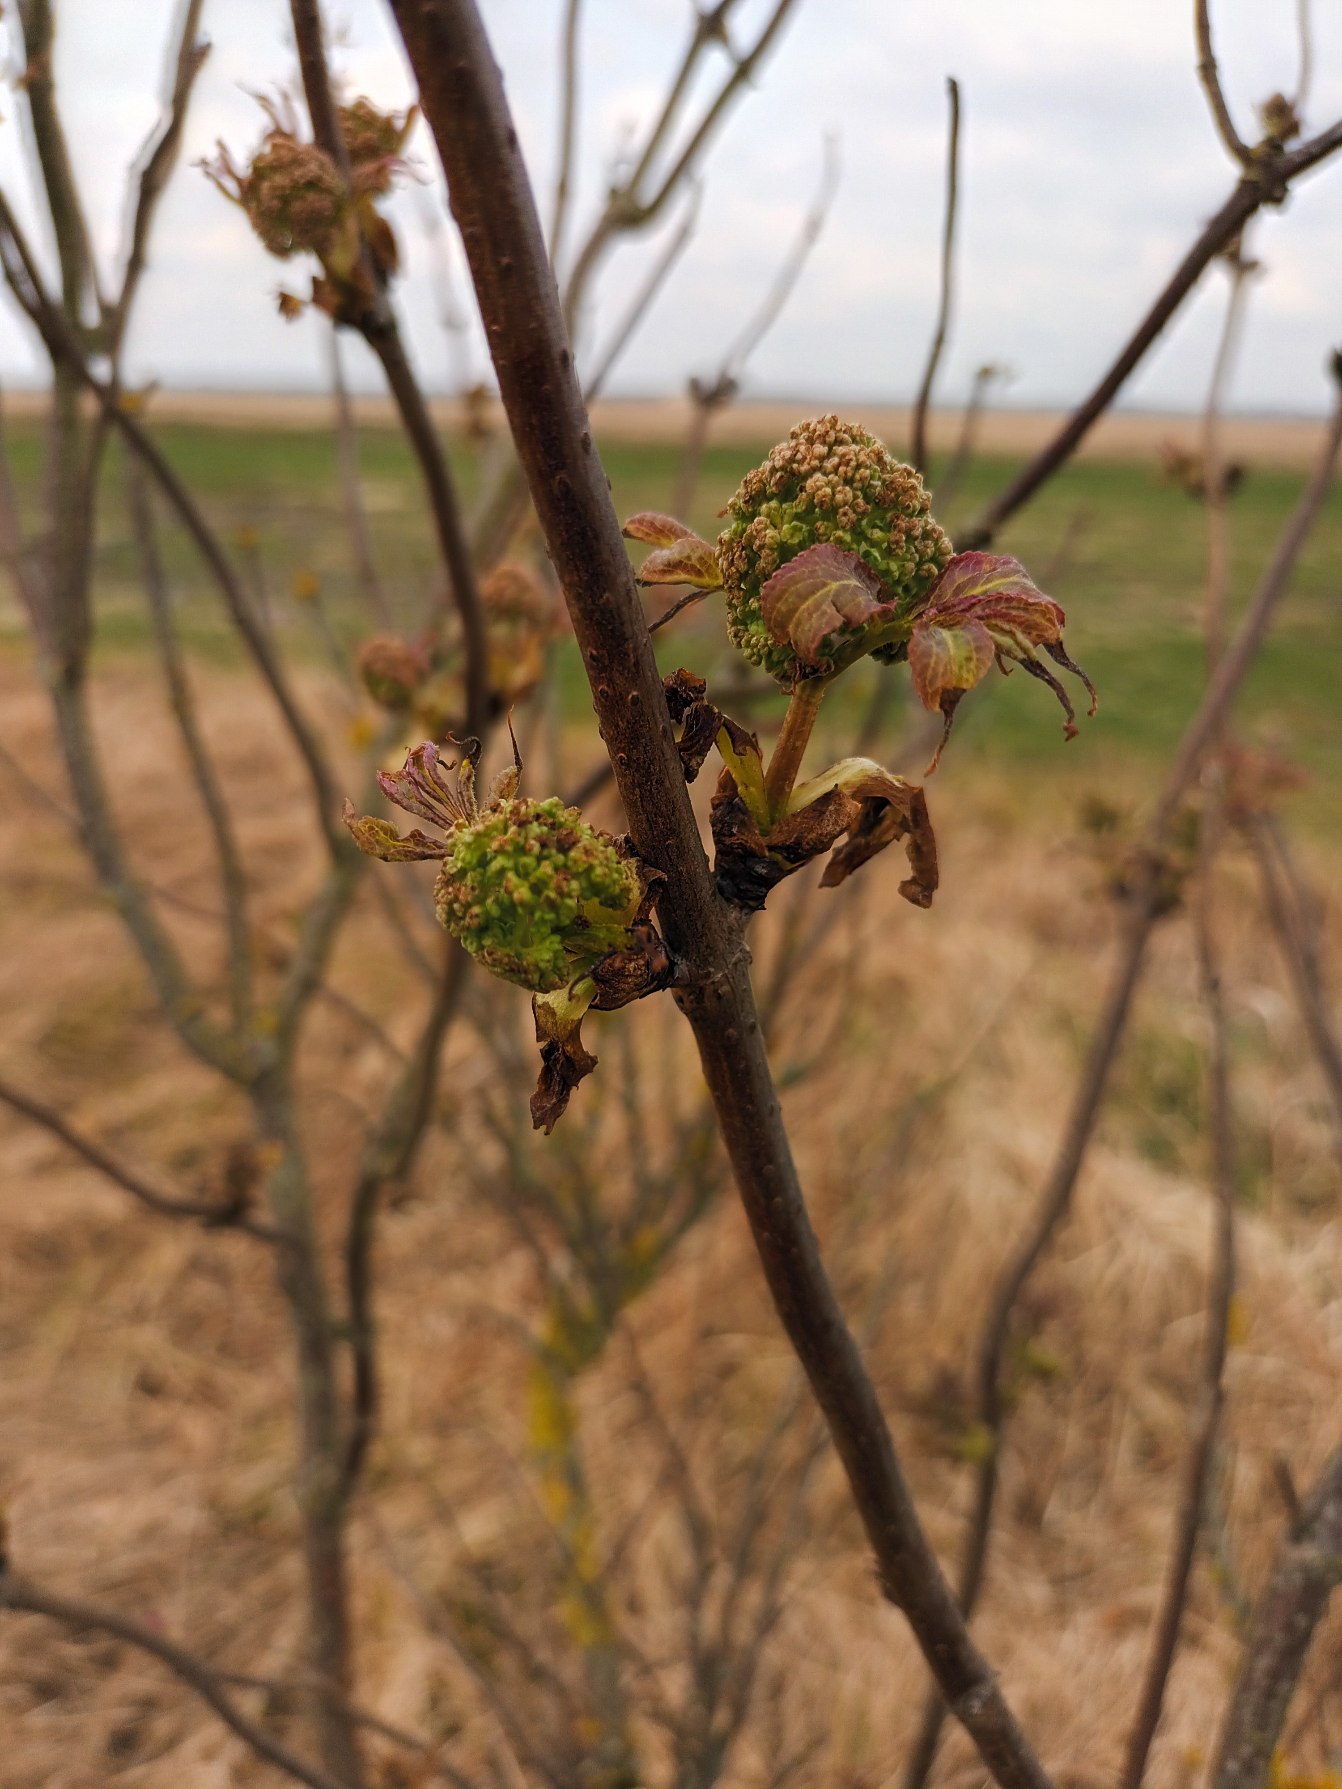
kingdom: Plantae
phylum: Tracheophyta
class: Magnoliopsida
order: Dipsacales
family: Viburnaceae
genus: Sambucus
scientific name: Sambucus racemosa
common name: Drue-hyld
